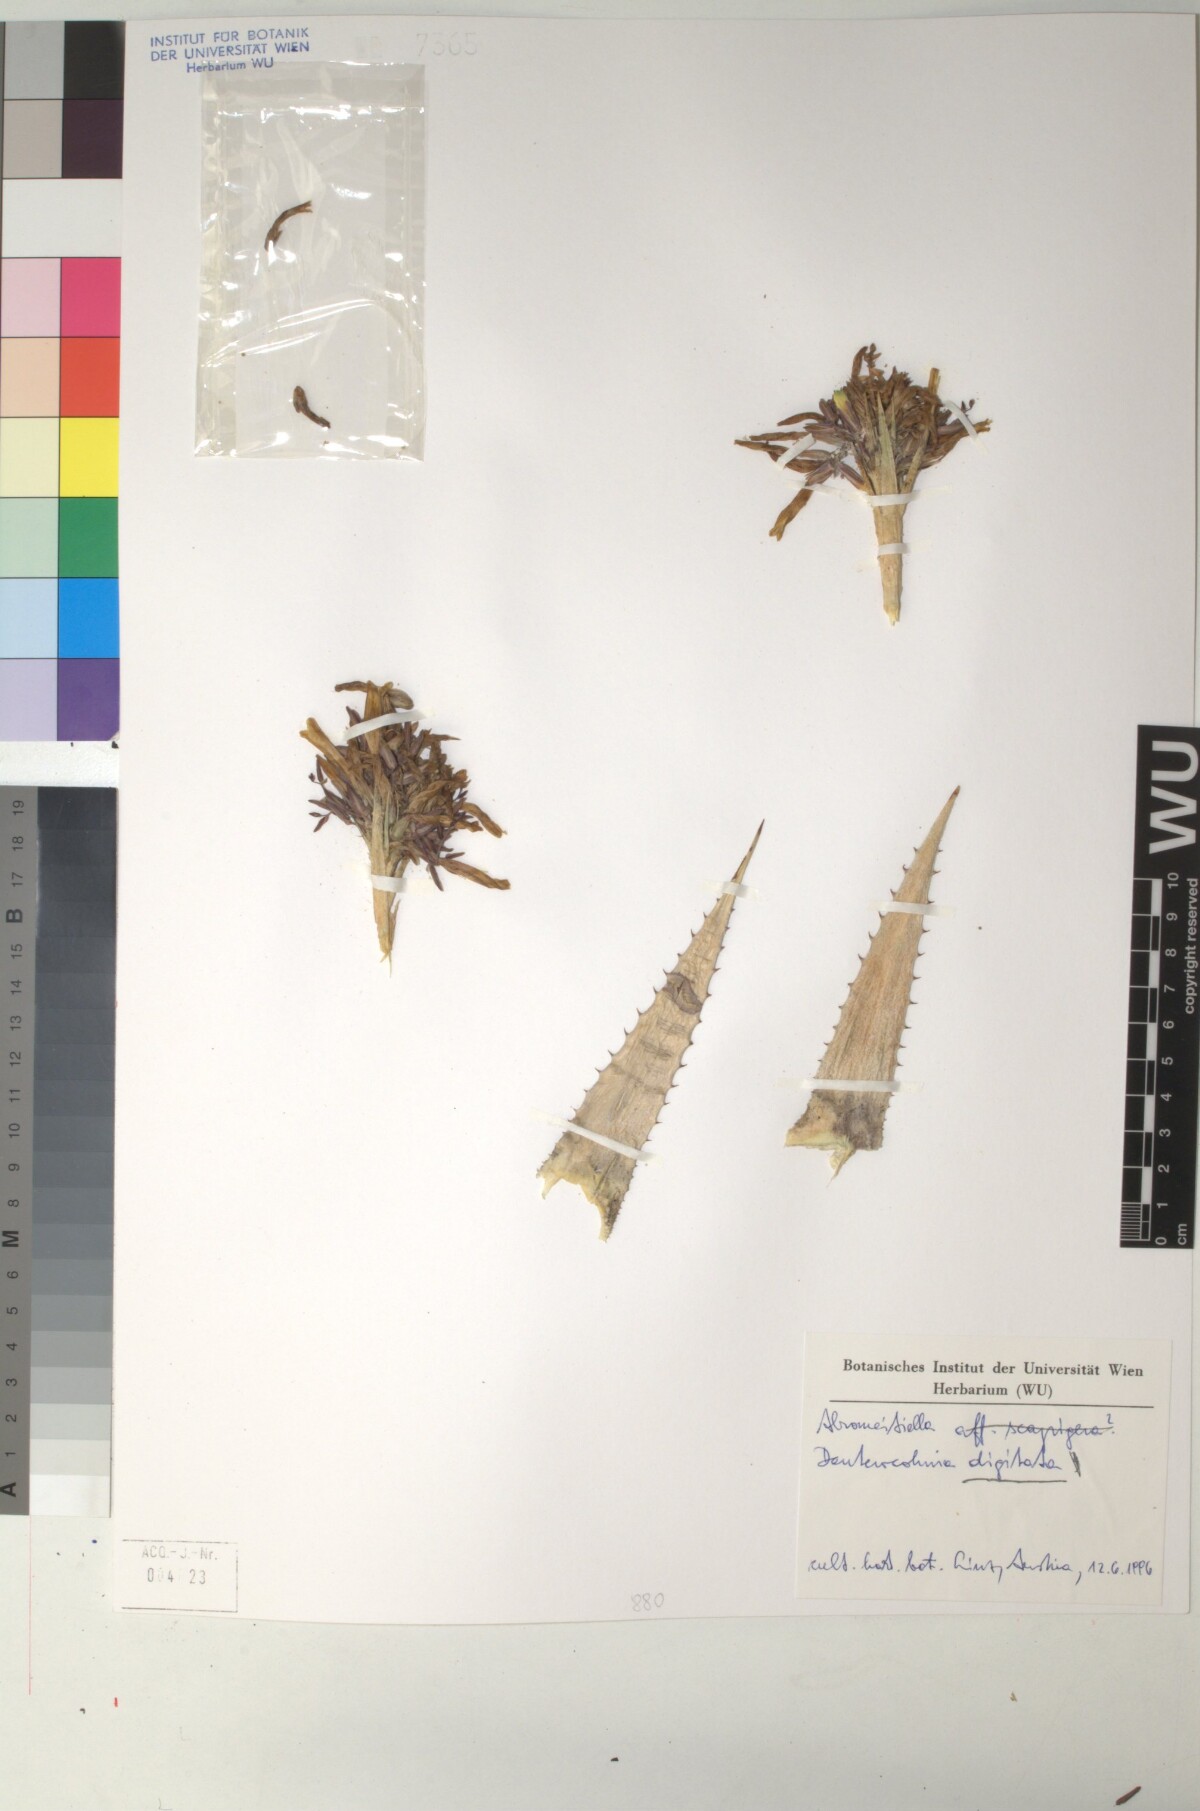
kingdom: Plantae
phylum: Tracheophyta
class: Liliopsida
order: Poales
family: Bromeliaceae
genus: Deuterocohnia
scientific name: Deuterocohnia digitata
